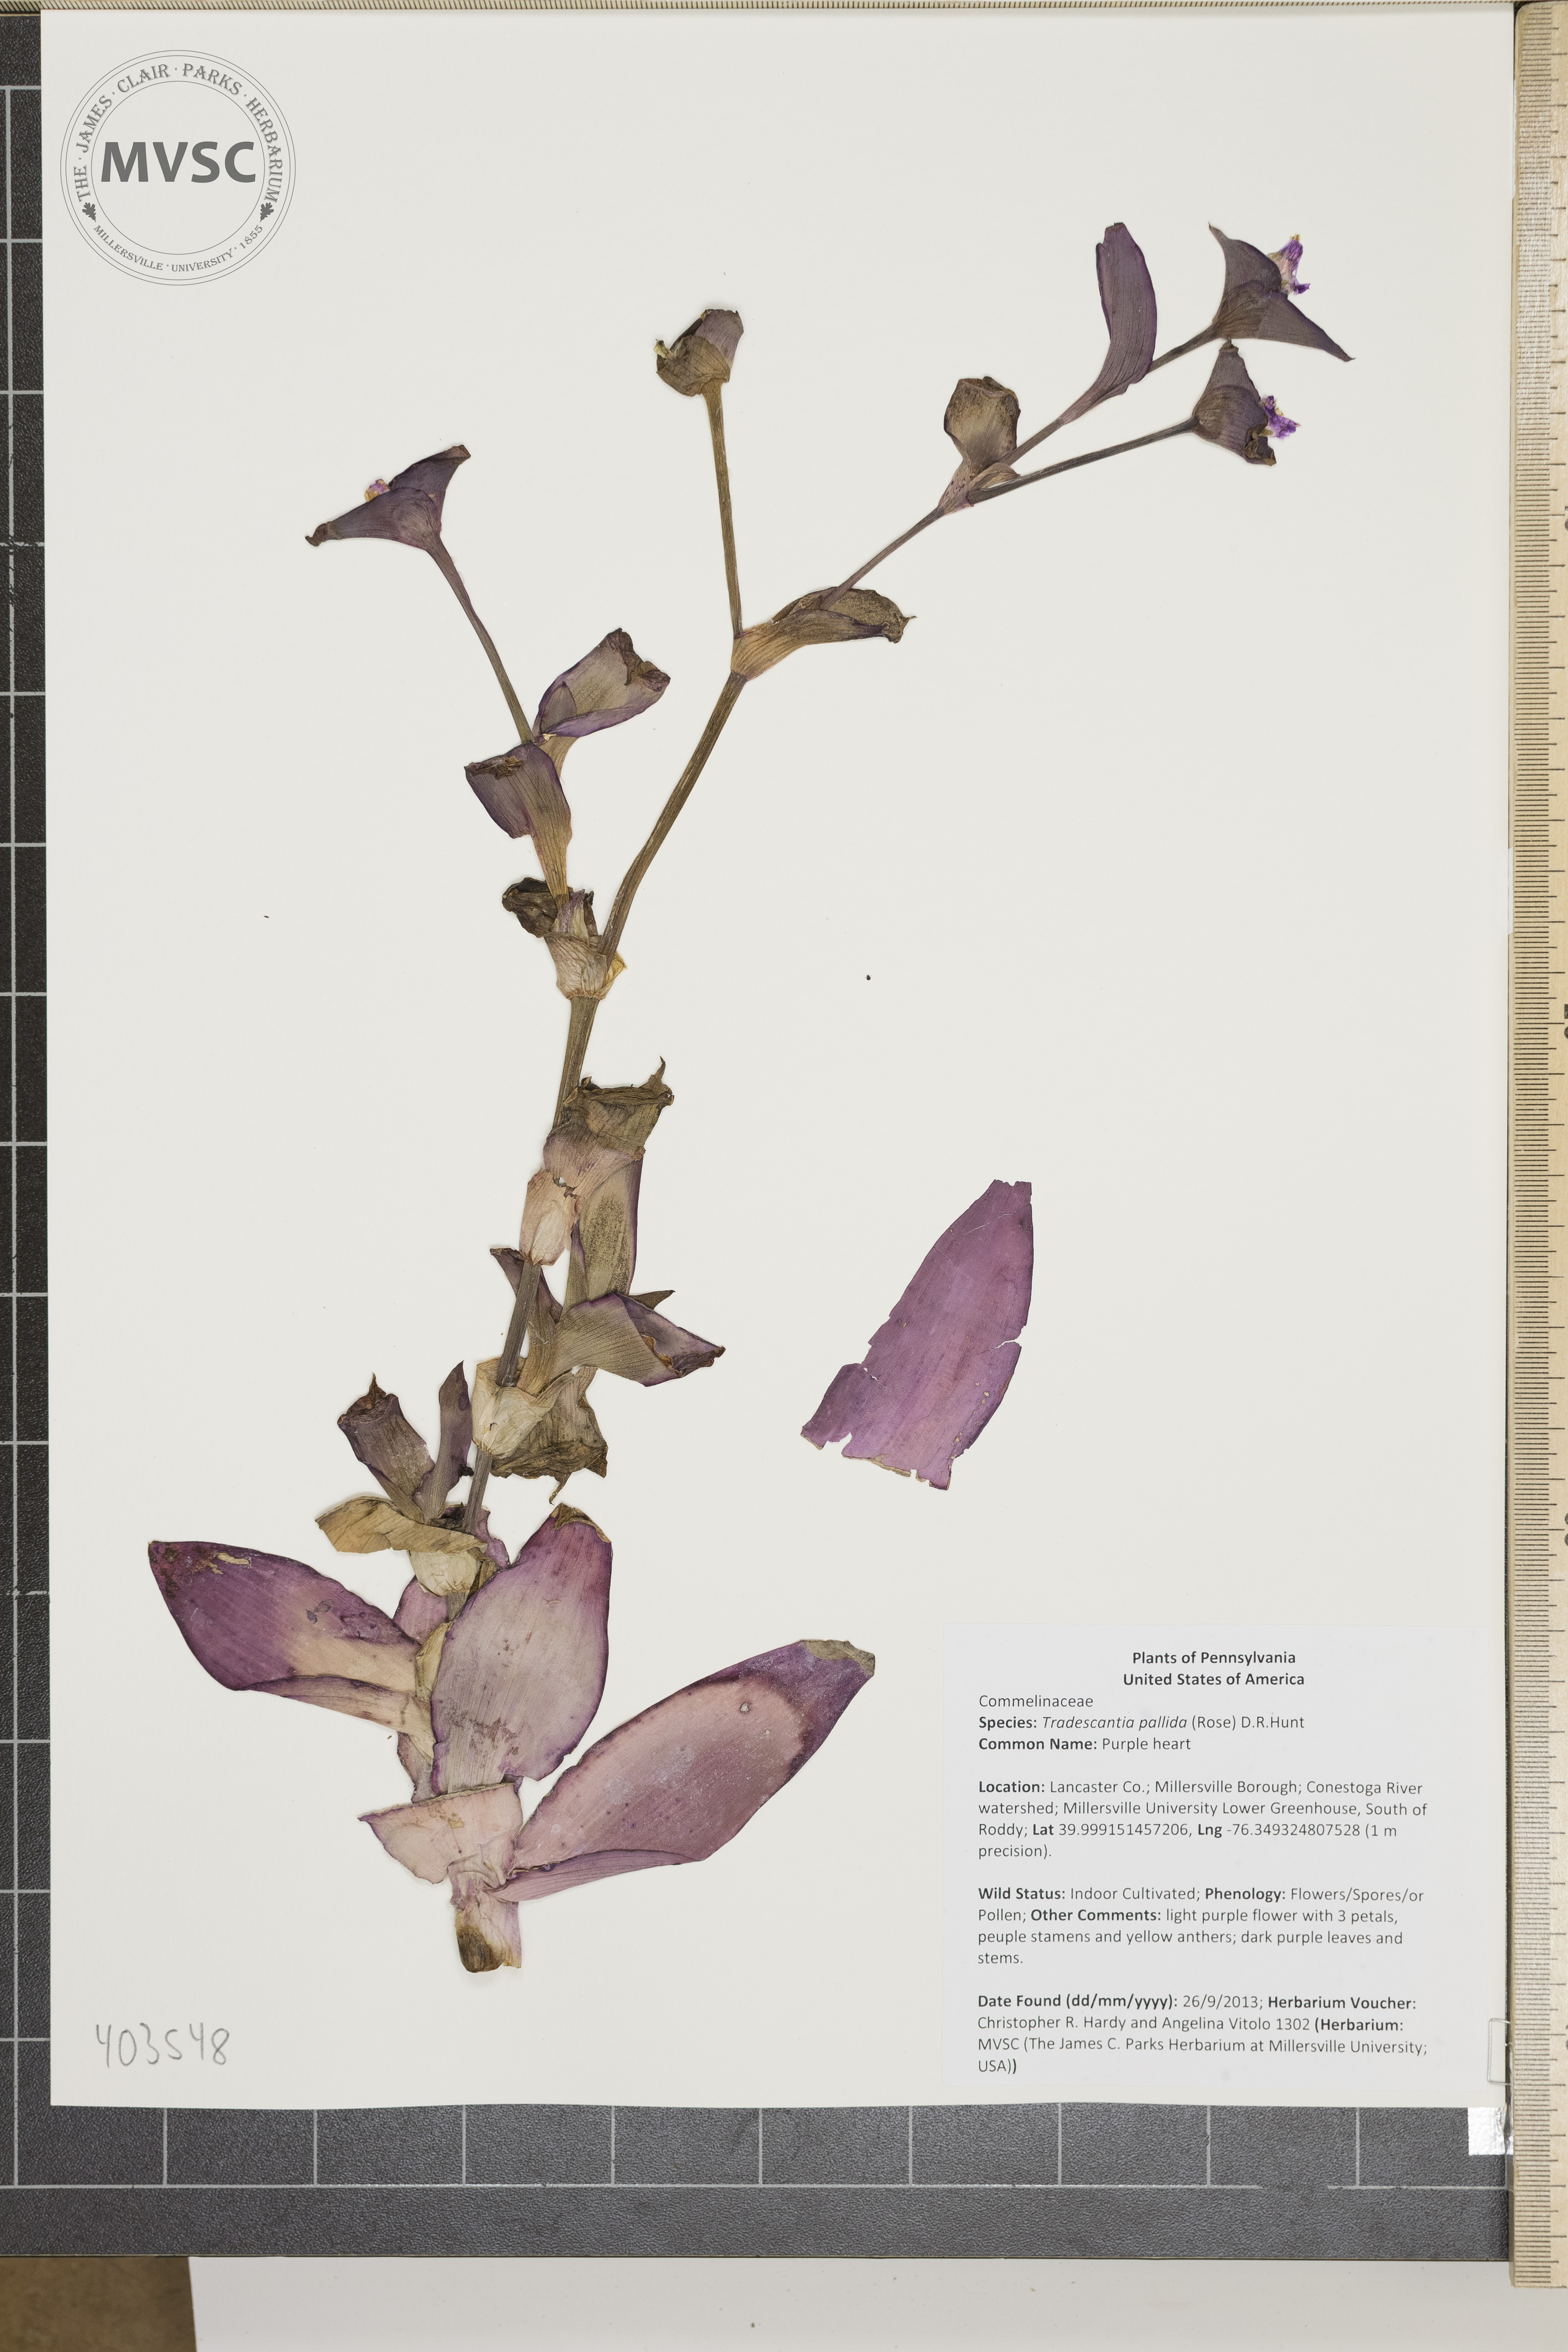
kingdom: Plantae
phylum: Tracheophyta
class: Liliopsida
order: Commelinales
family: Commelinaceae
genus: Tradescantia
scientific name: Tradescantia pallida
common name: Purple heart
